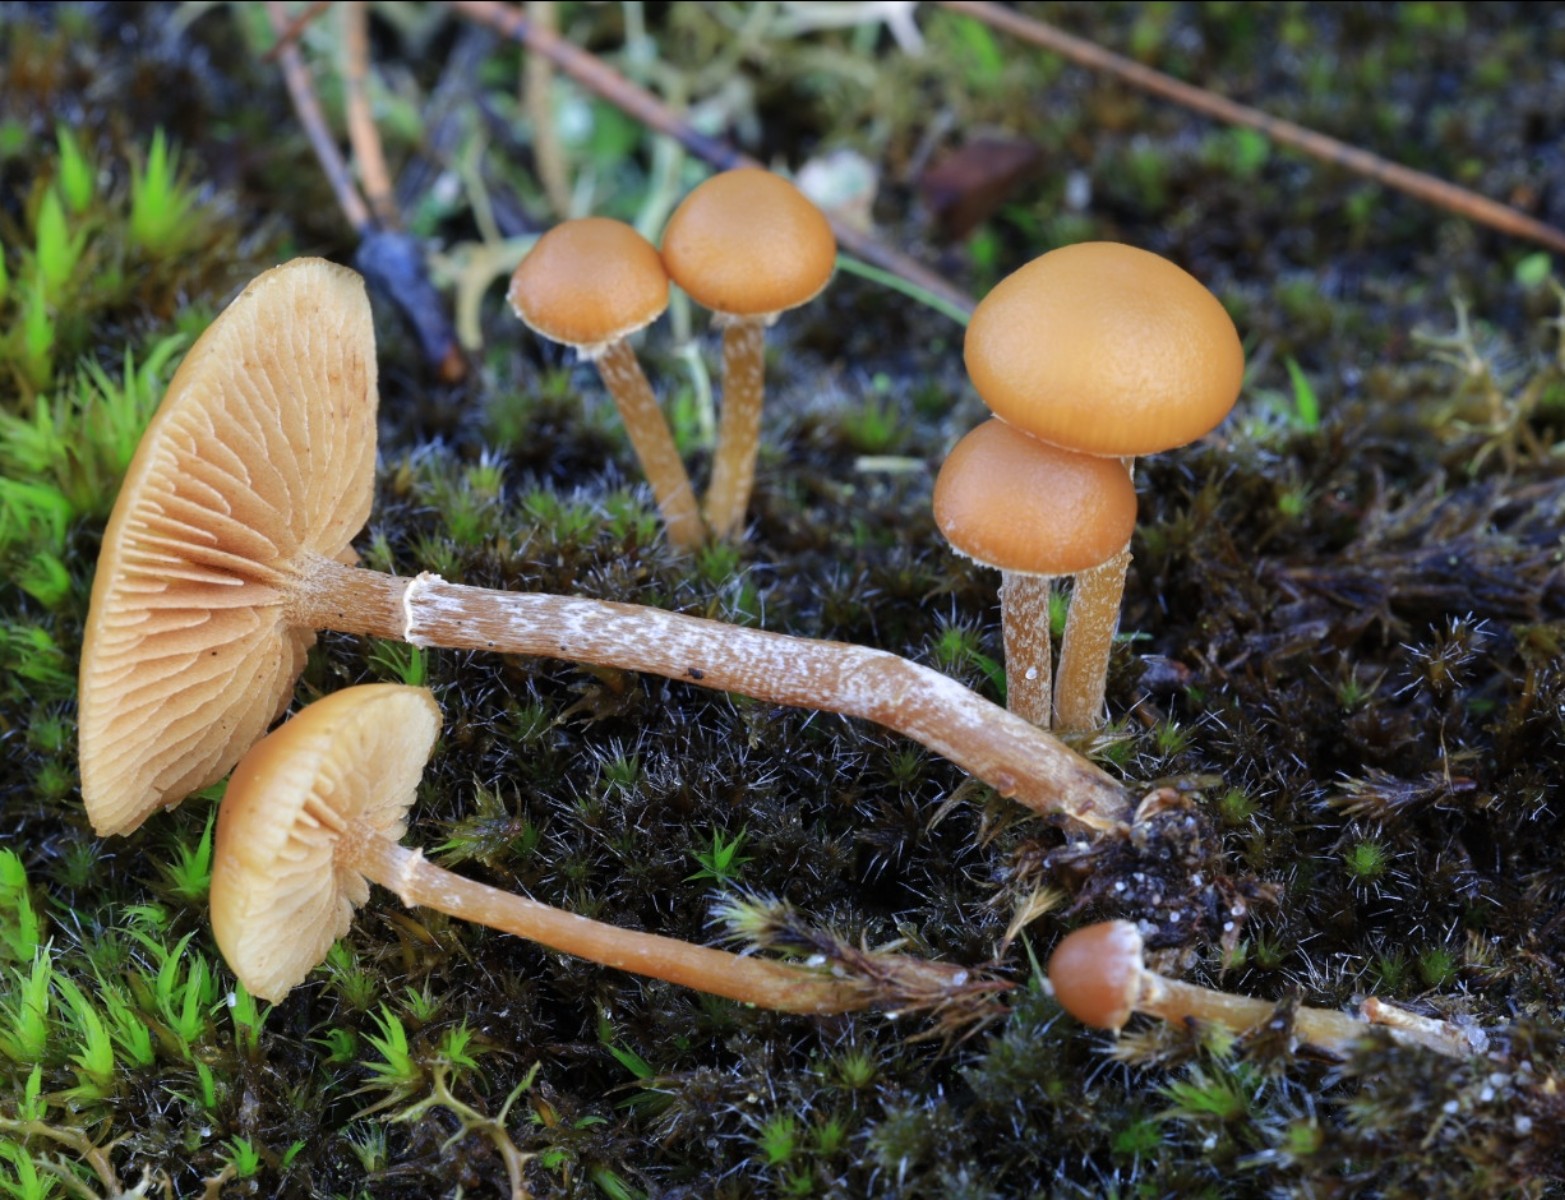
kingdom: Fungi
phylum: Basidiomycota
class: Agaricomycetes
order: Agaricales
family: Hymenogastraceae
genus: Galerina
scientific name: Galerina marginata
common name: randbæltet hjelmhat
